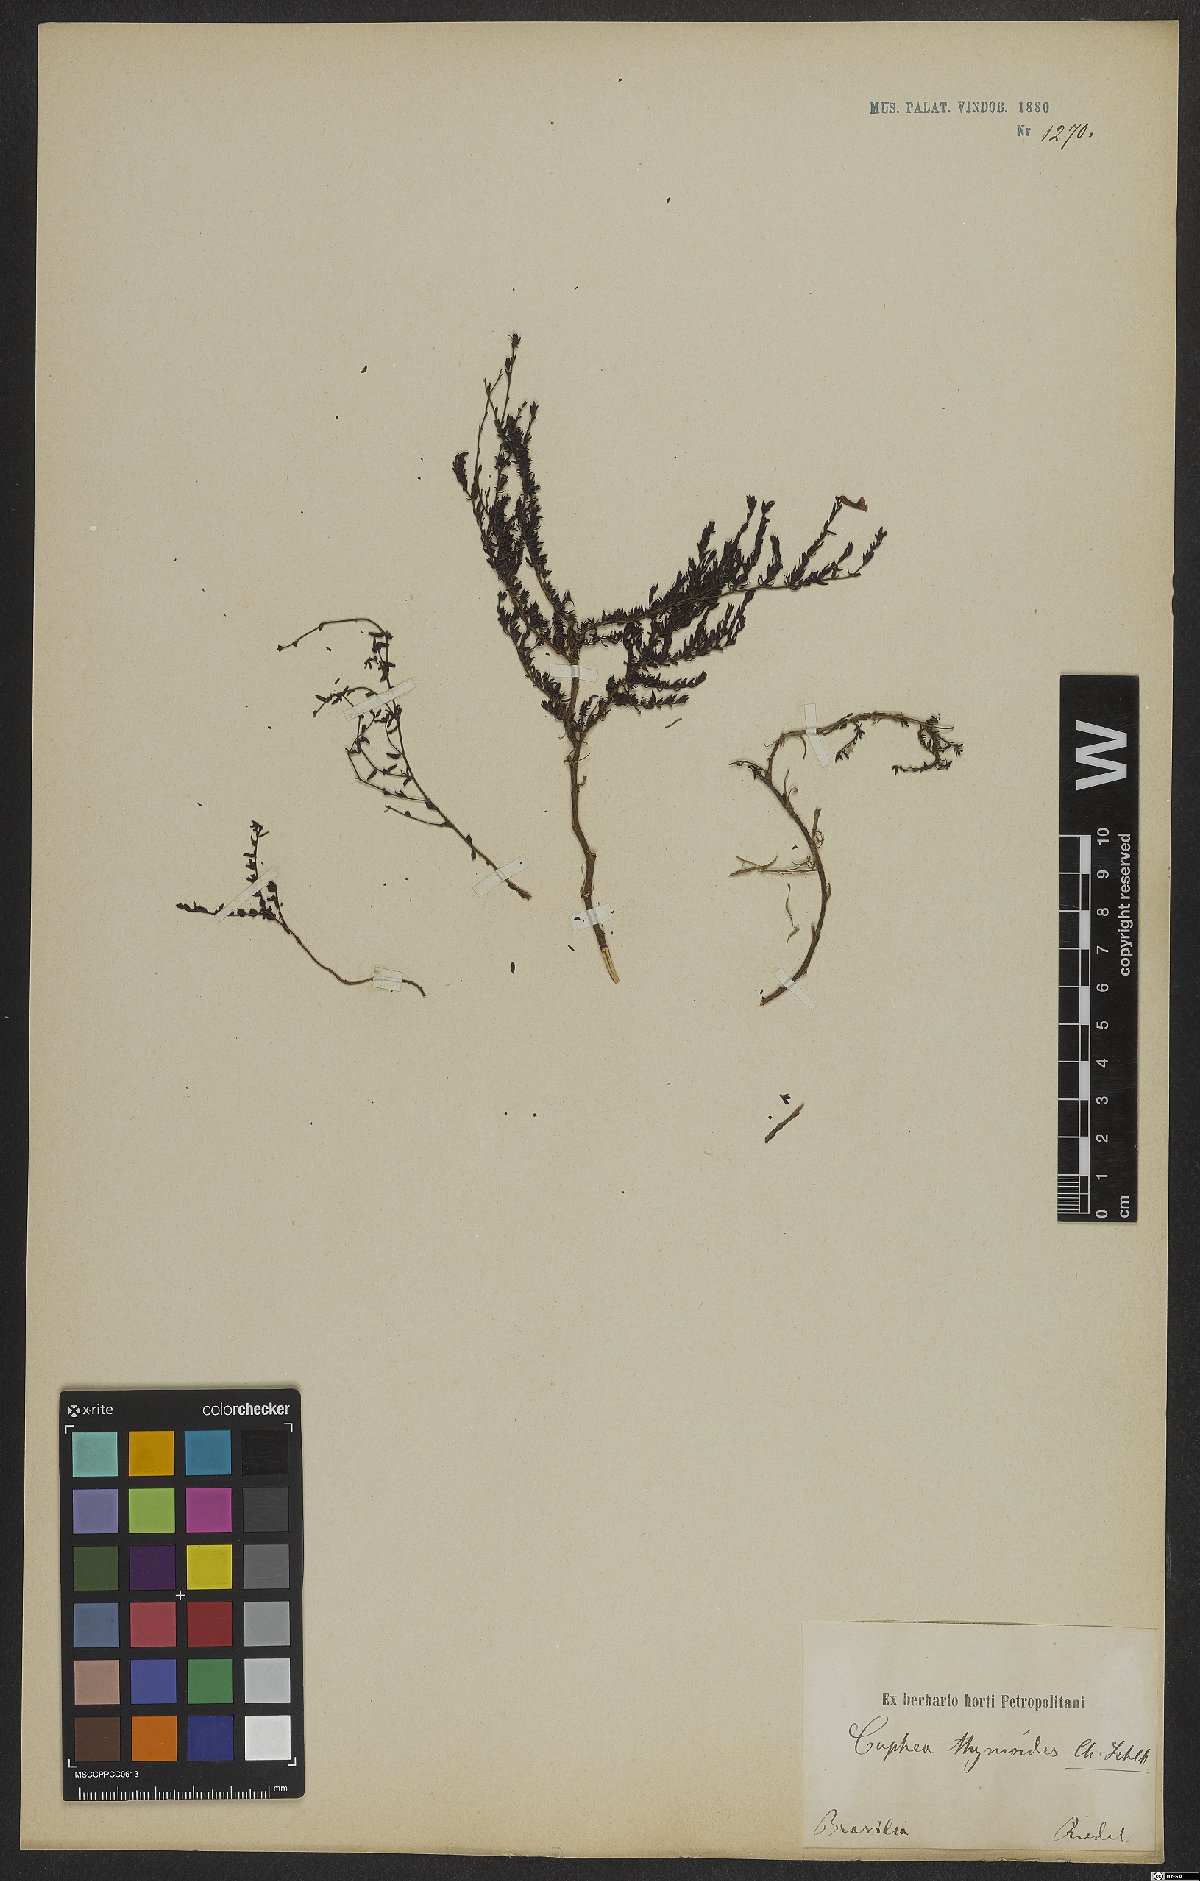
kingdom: Plantae
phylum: Tracheophyta
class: Magnoliopsida
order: Myrtales
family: Lythraceae
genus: Cuphea
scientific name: Cuphea thymoides
